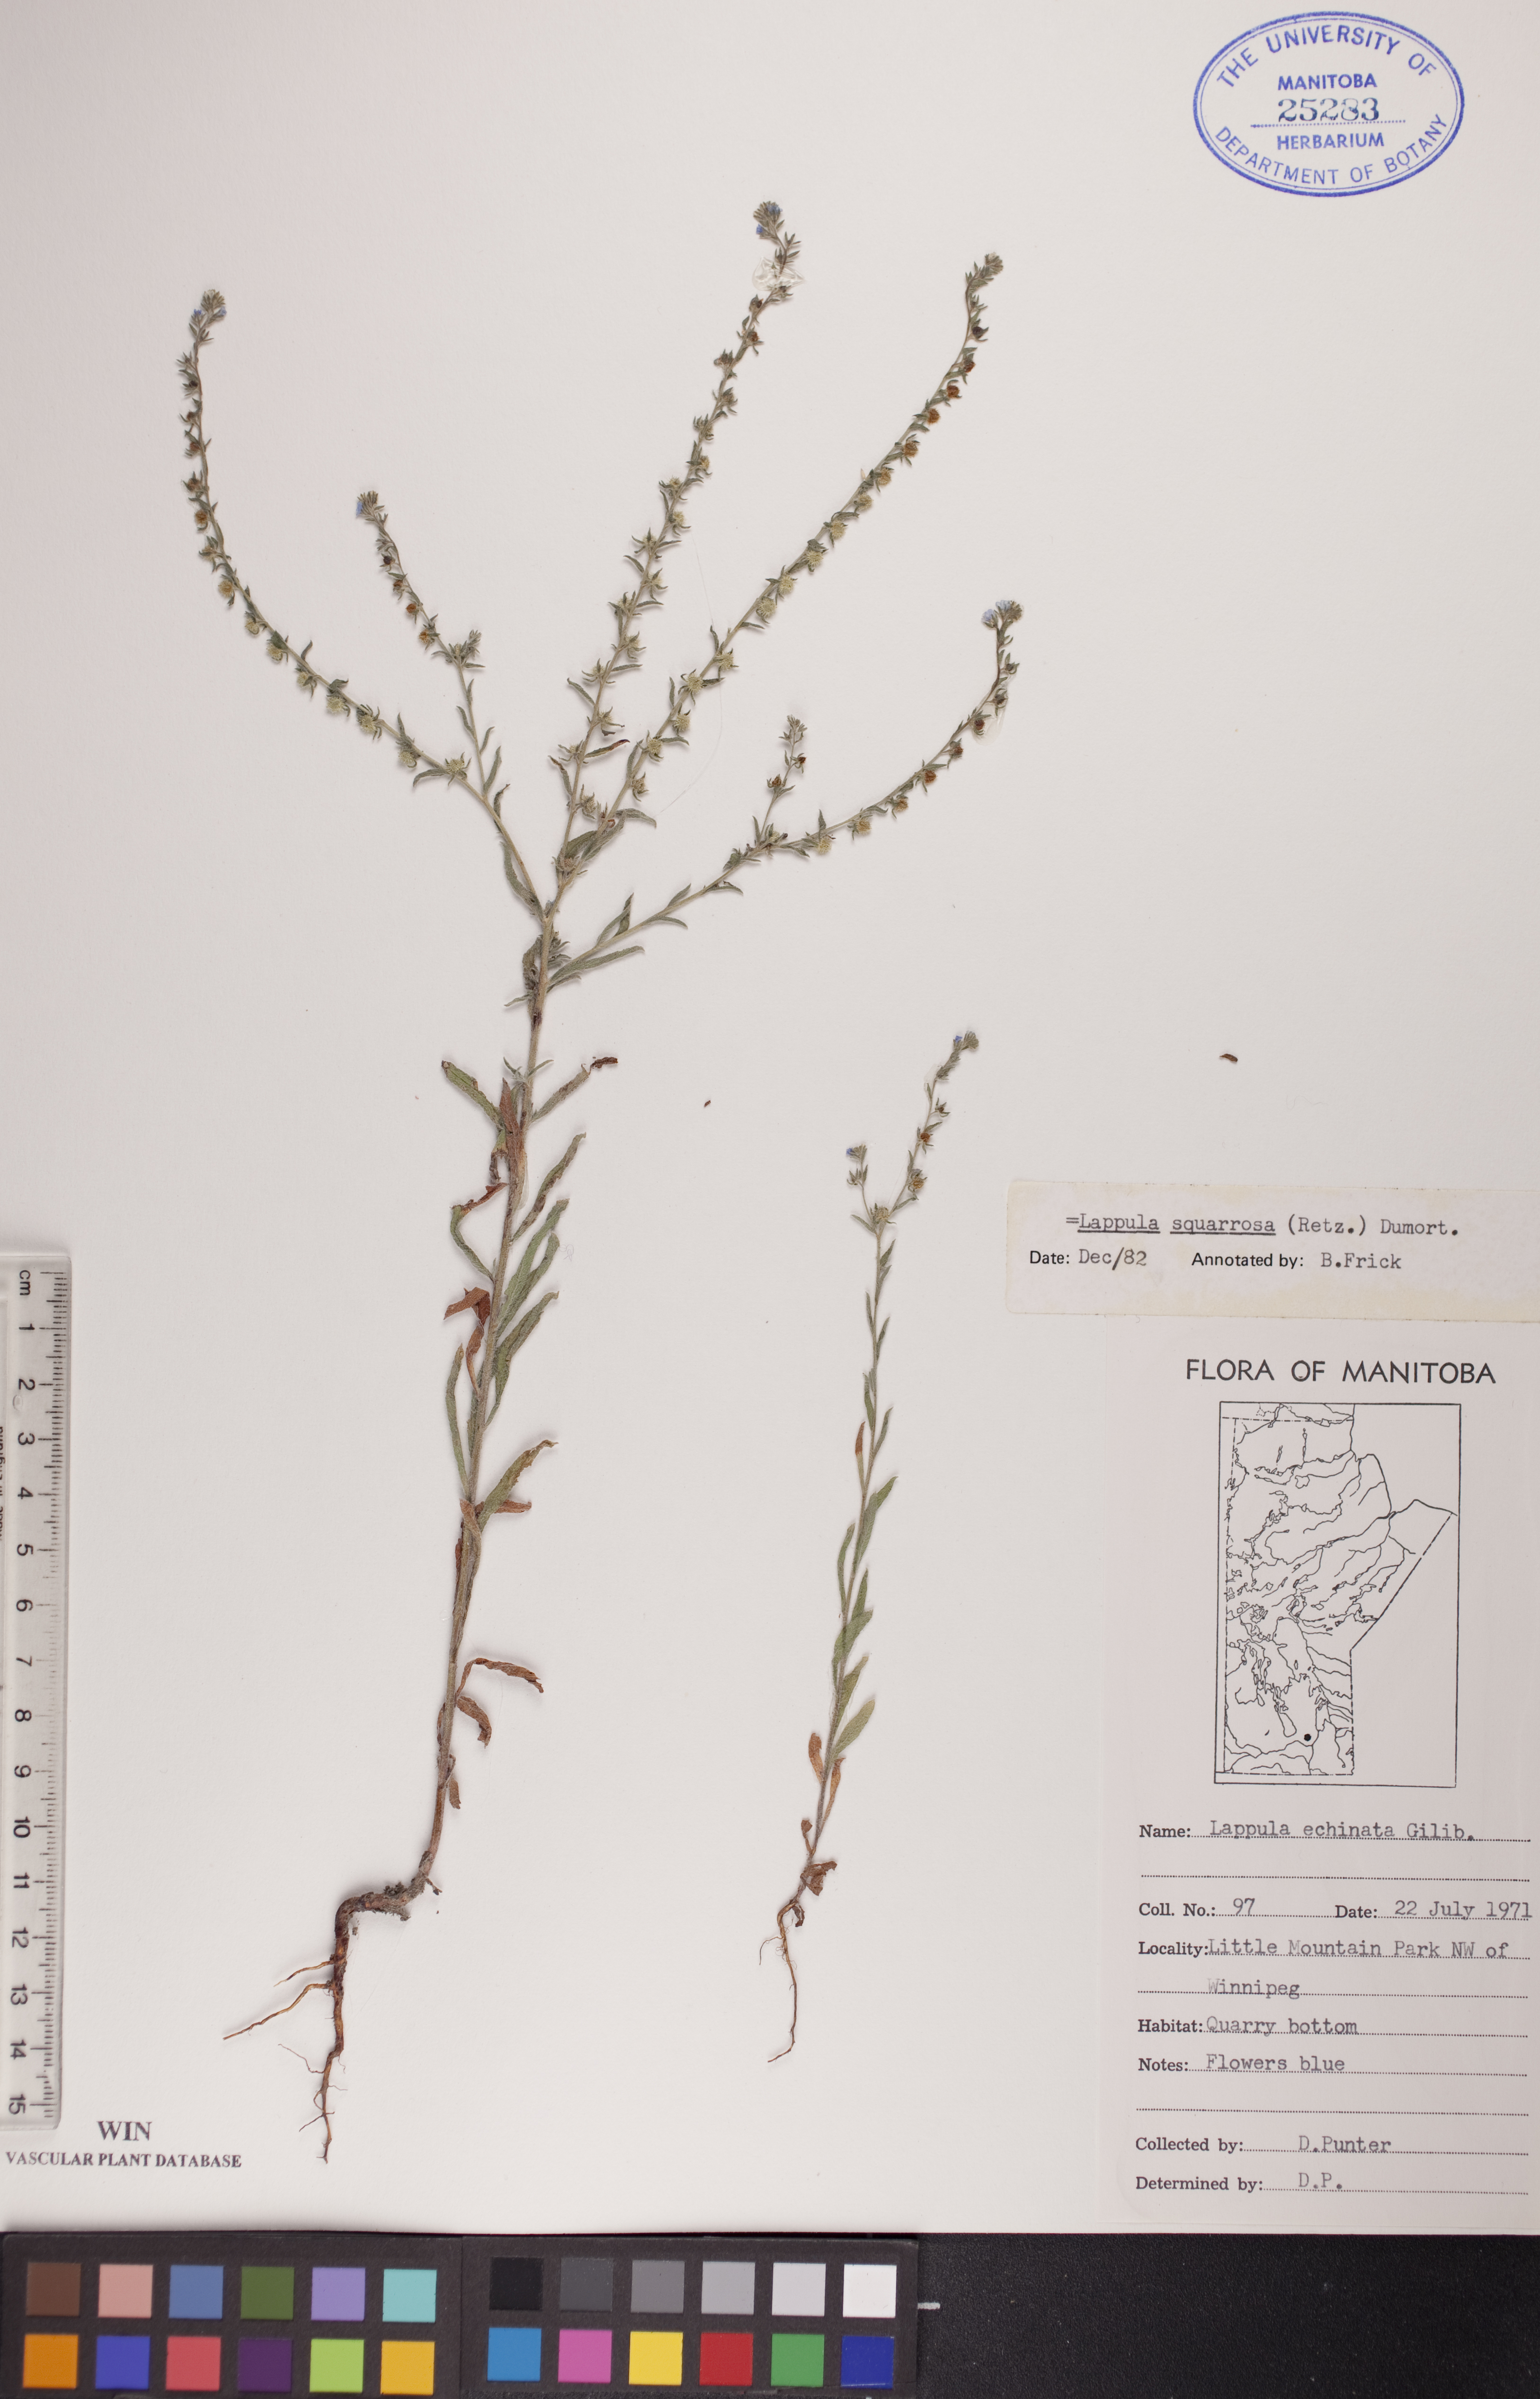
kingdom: Plantae
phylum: Tracheophyta
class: Magnoliopsida
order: Boraginales
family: Boraginaceae
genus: Lappula
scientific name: Lappula squarrosa
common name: European stickseed
